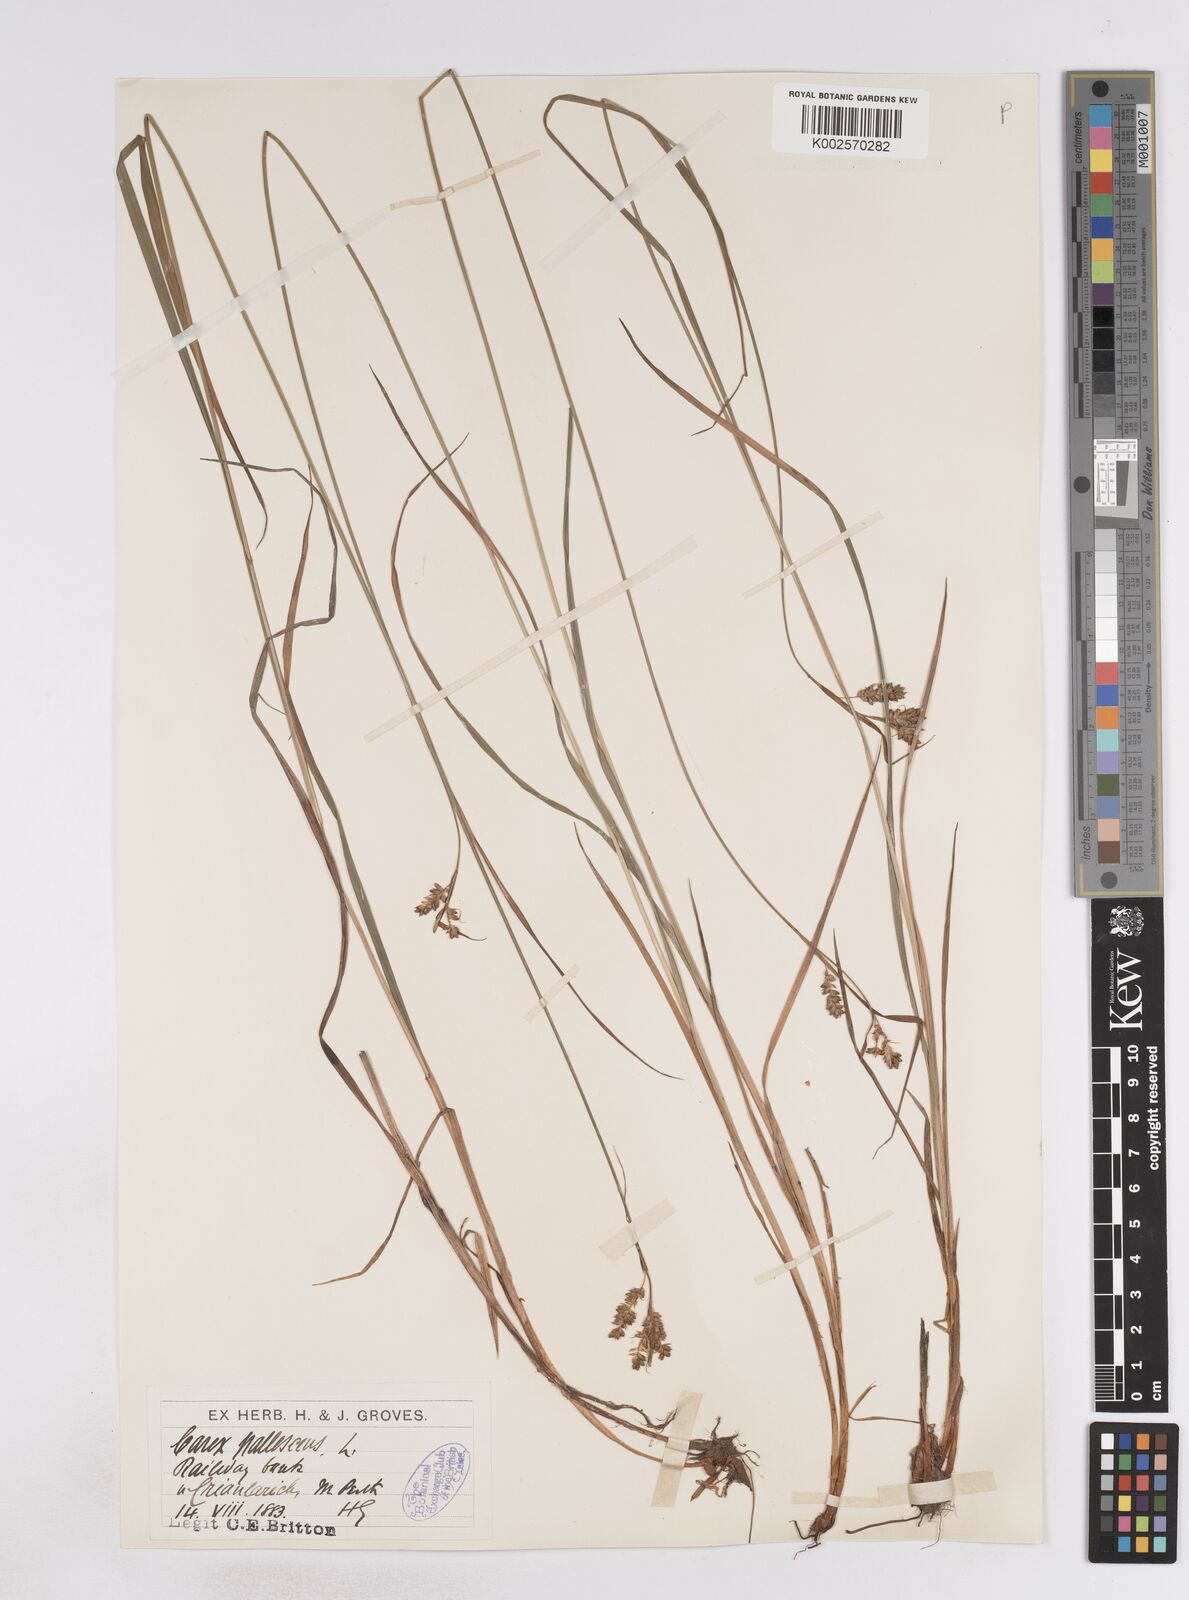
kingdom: Plantae
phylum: Tracheophyta
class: Liliopsida
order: Poales
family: Cyperaceae
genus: Carex
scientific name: Carex pallescens
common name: Pale sedge
